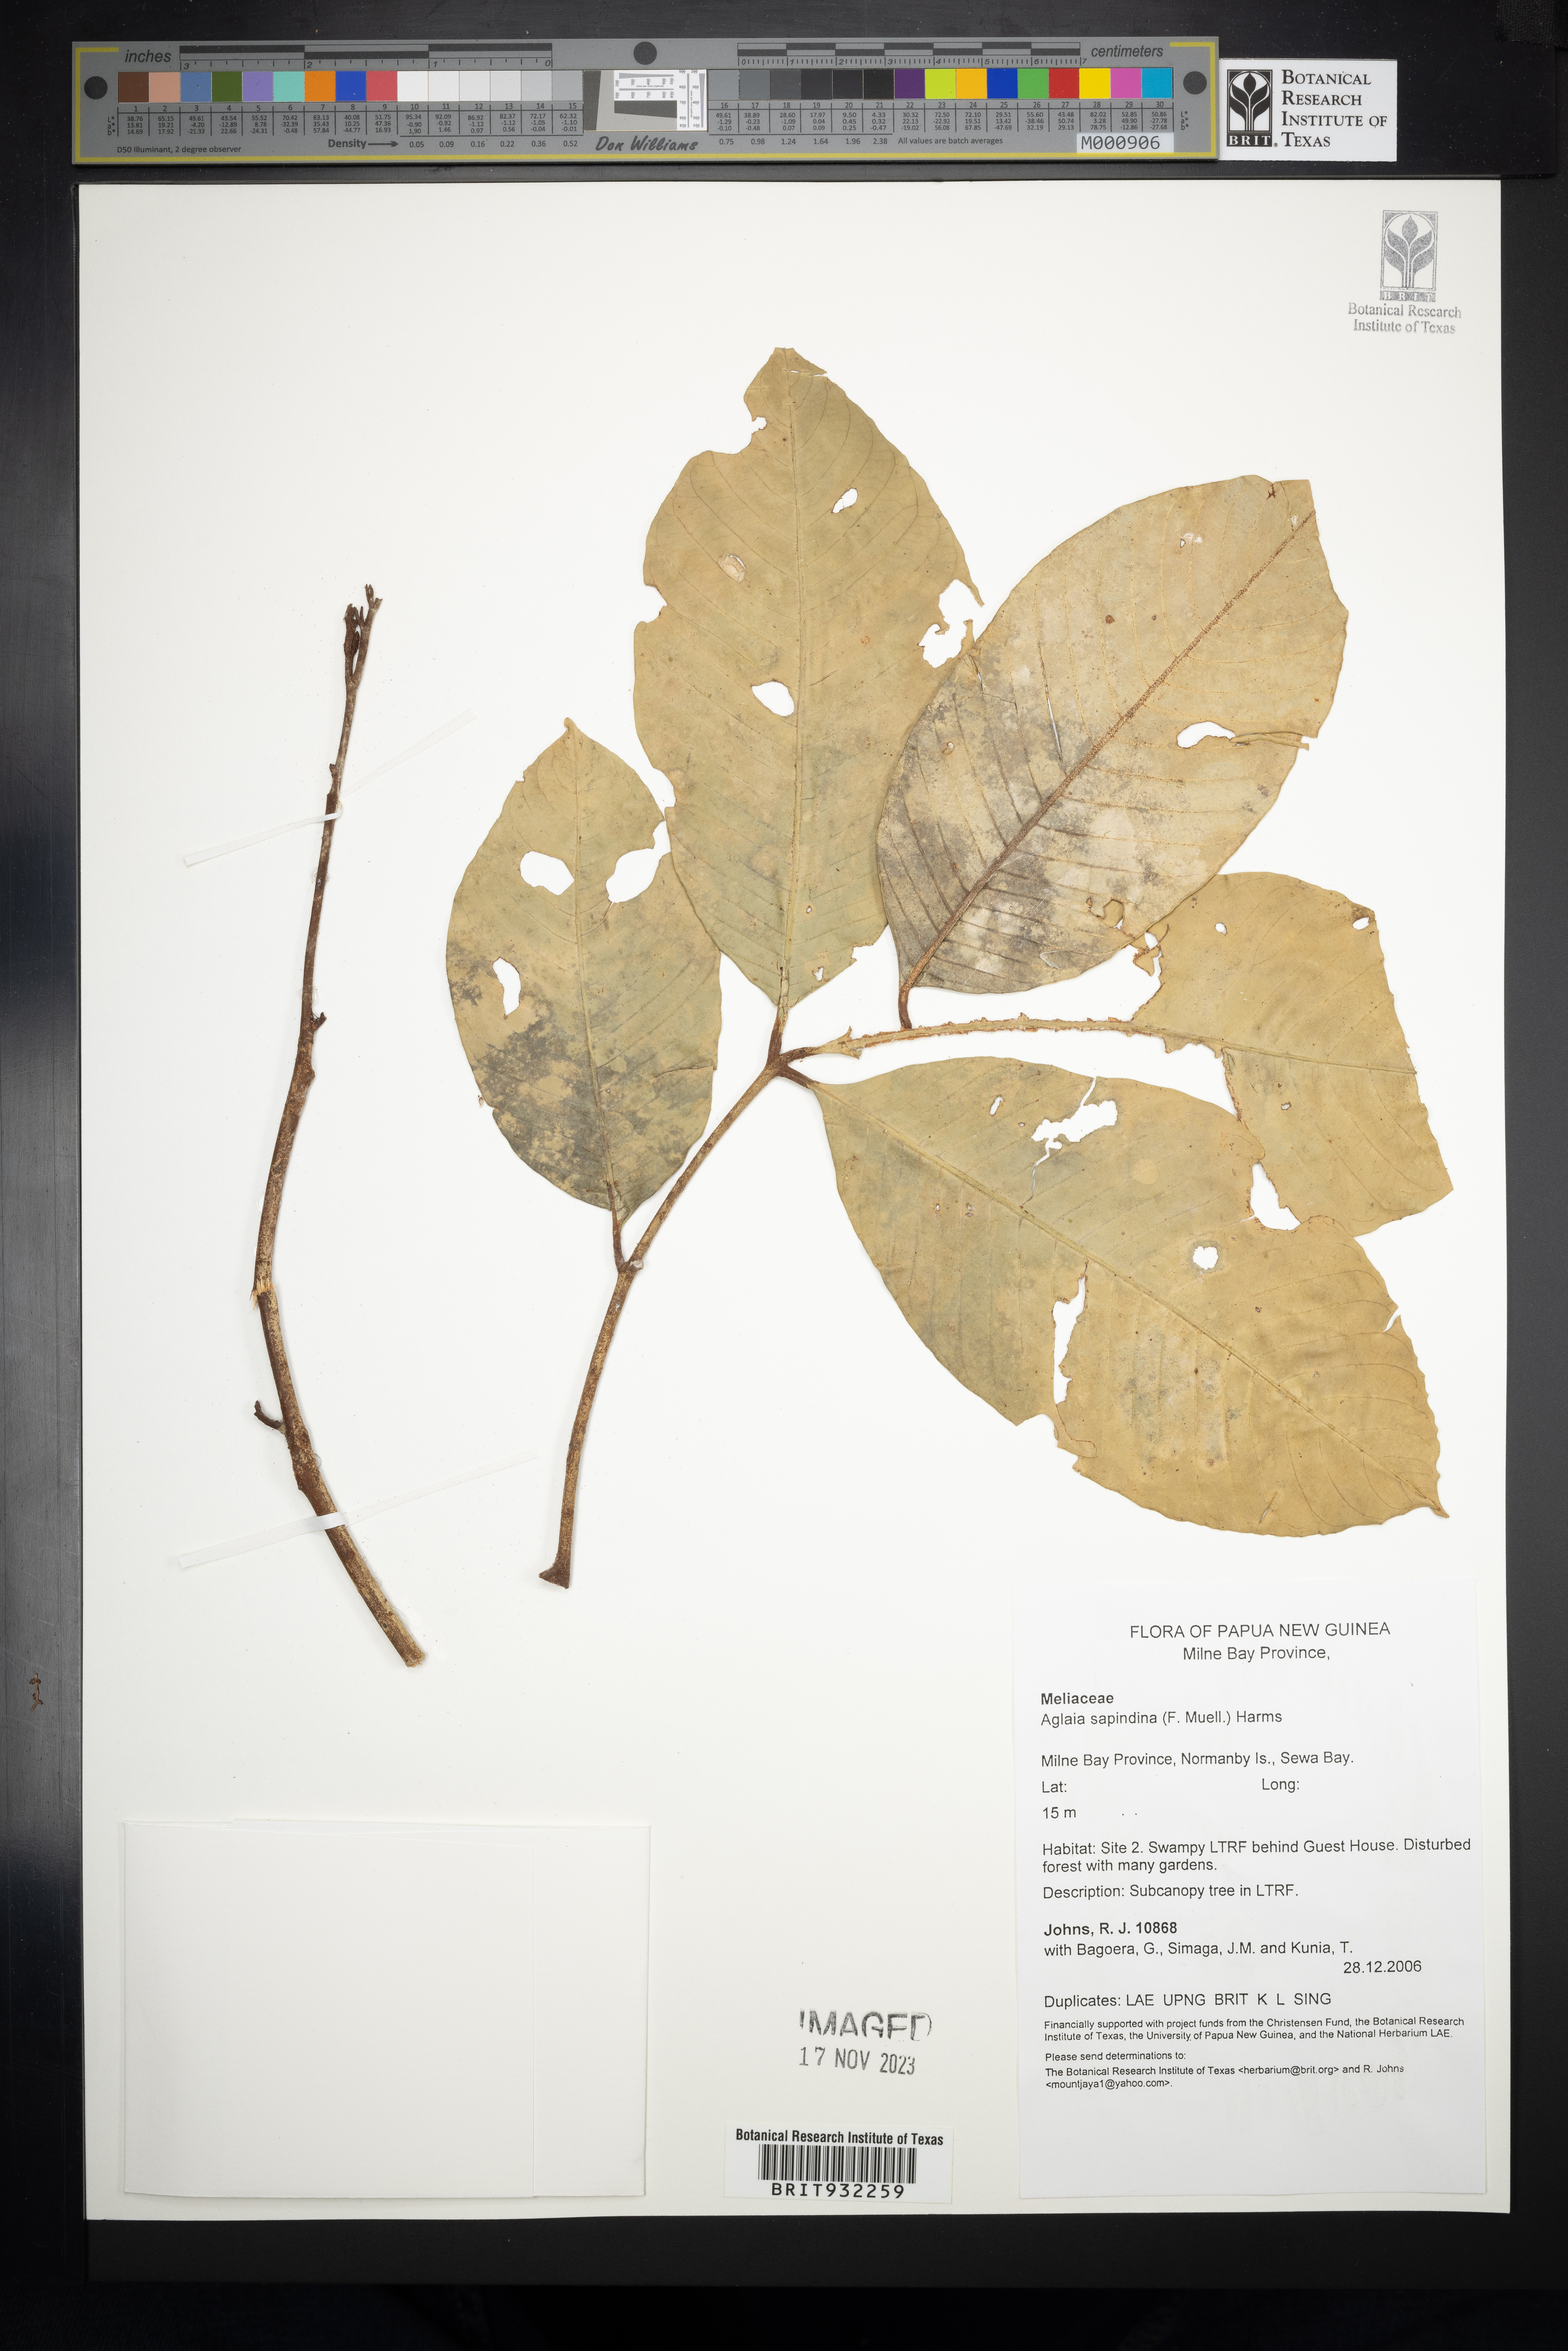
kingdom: Plantae
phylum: Tracheophyta
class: Magnoliopsida
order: Sapindales
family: Meliaceae
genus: Aglaia
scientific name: Aglaia
